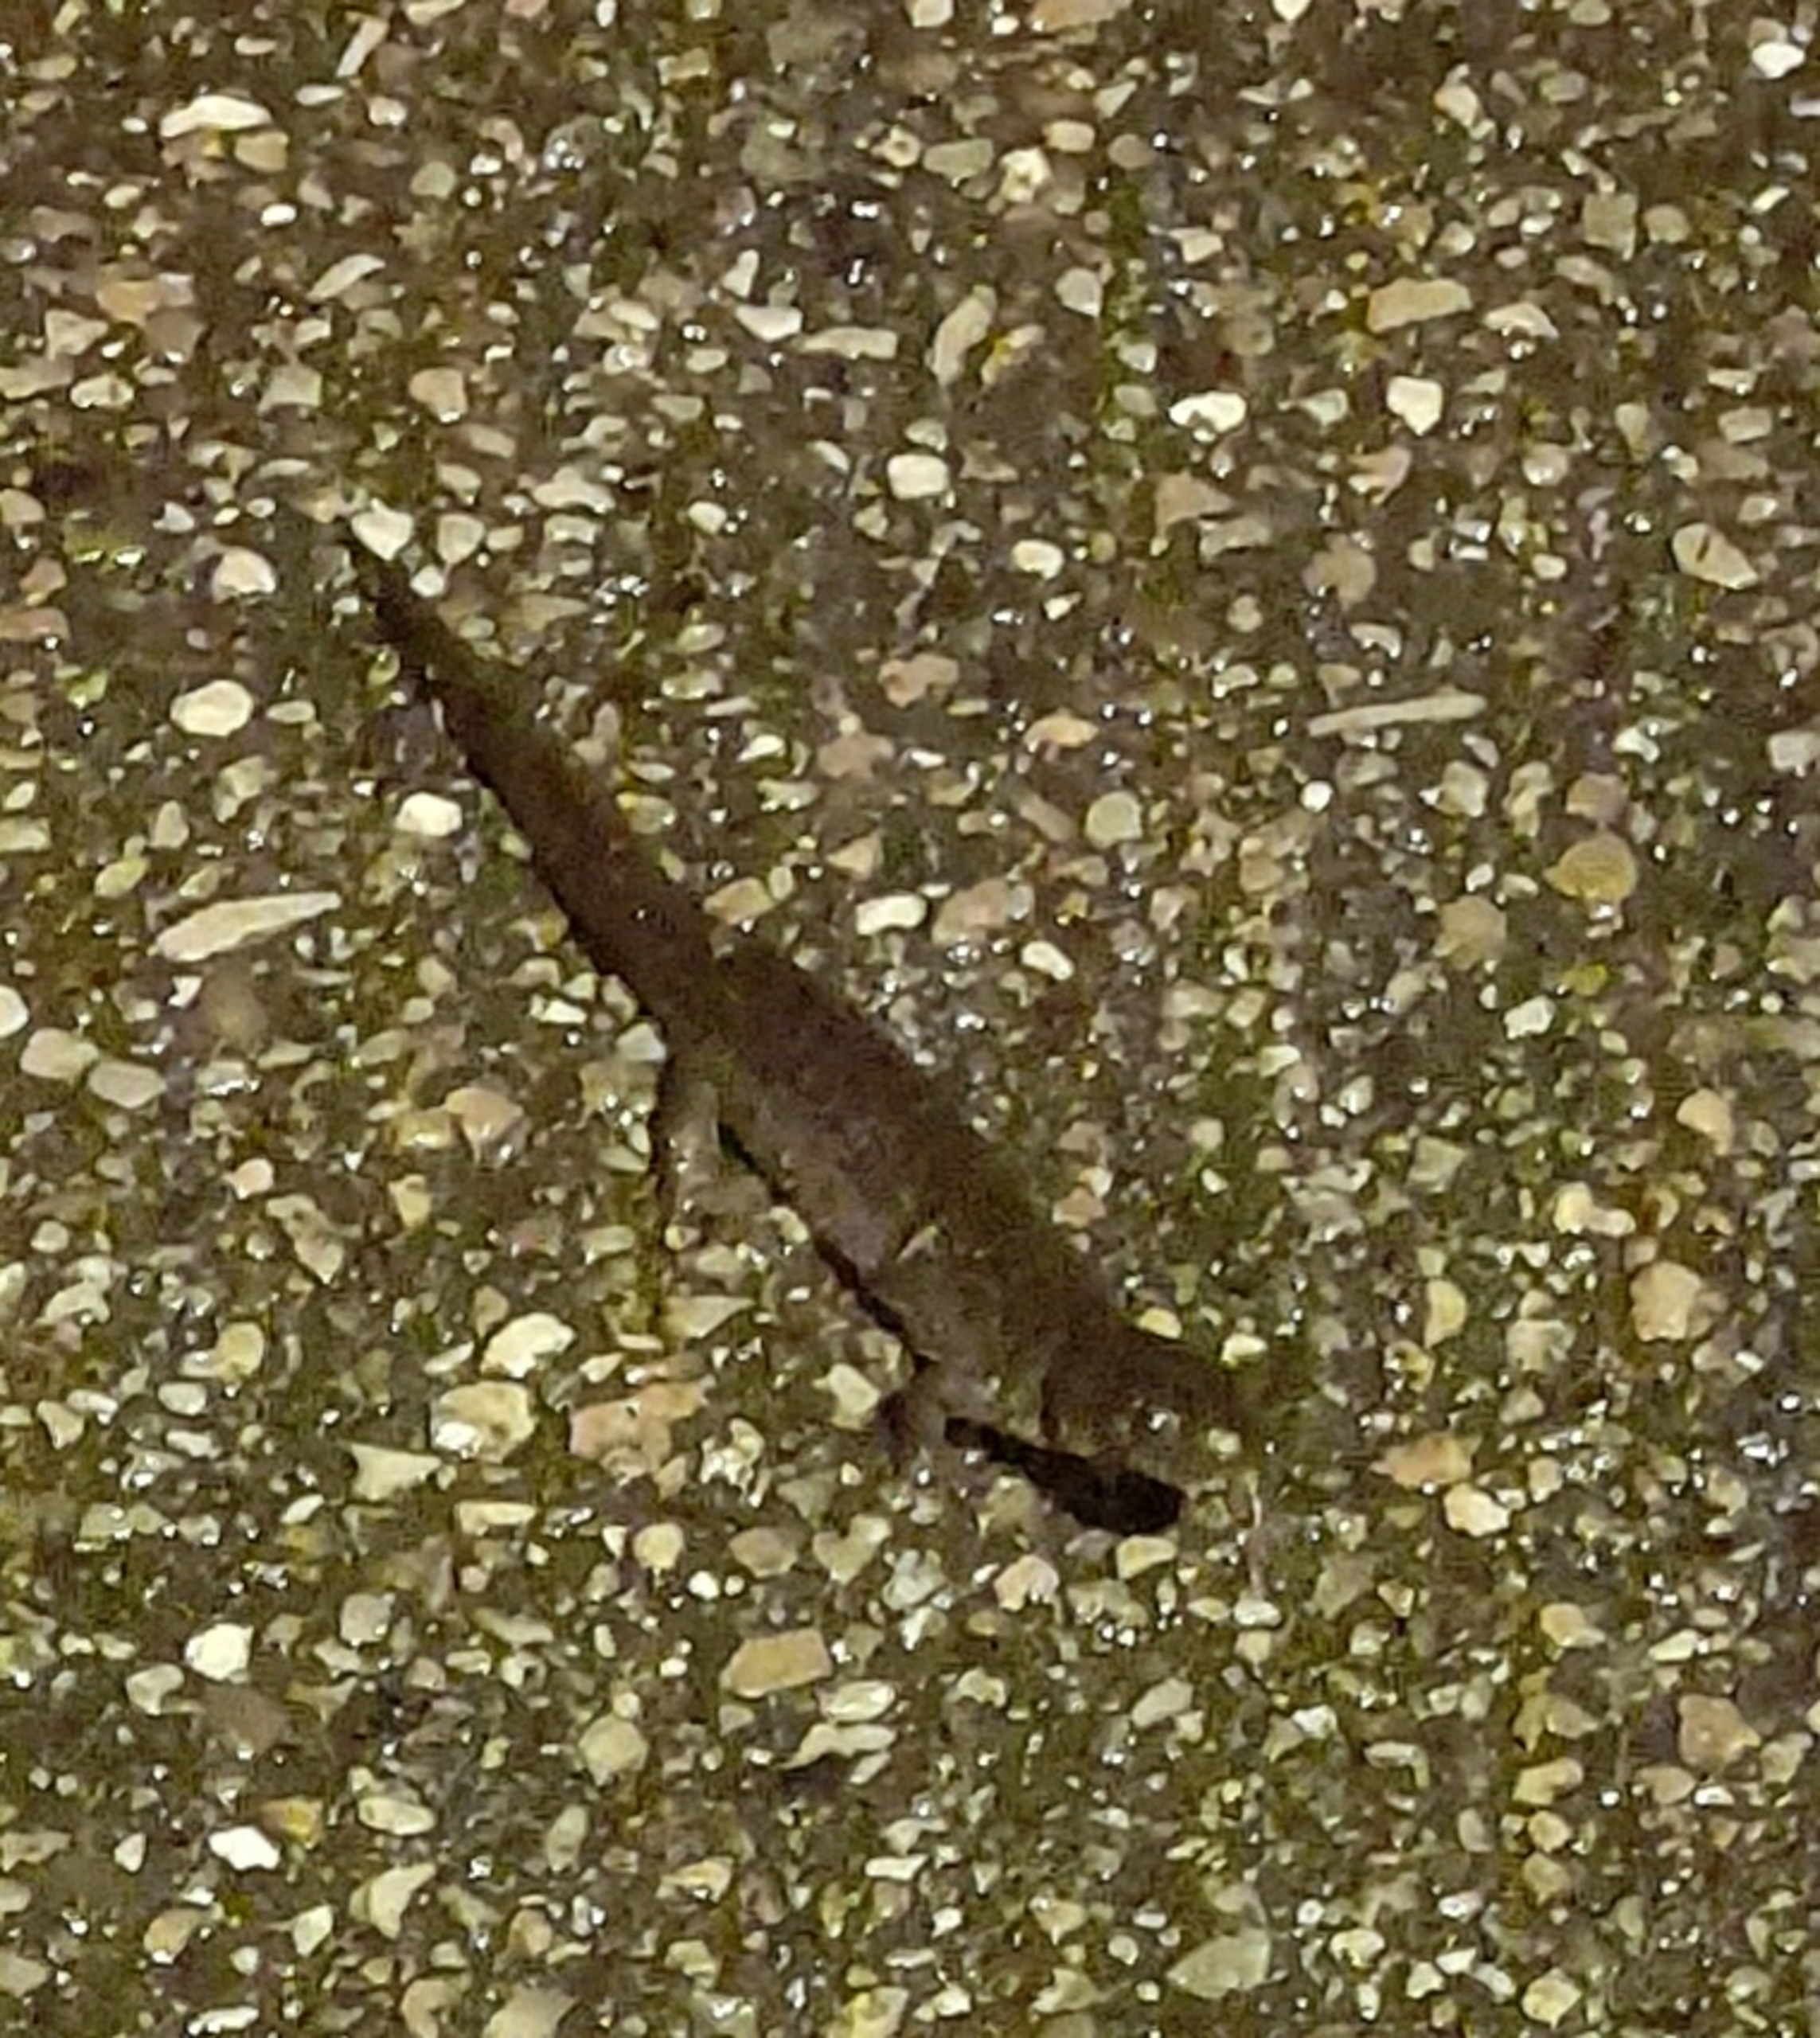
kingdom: Animalia
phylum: Chordata
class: Amphibia
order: Caudata
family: Salamandridae
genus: Lissotriton
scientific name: Lissotriton vulgaris
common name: Lille vandsalamander
